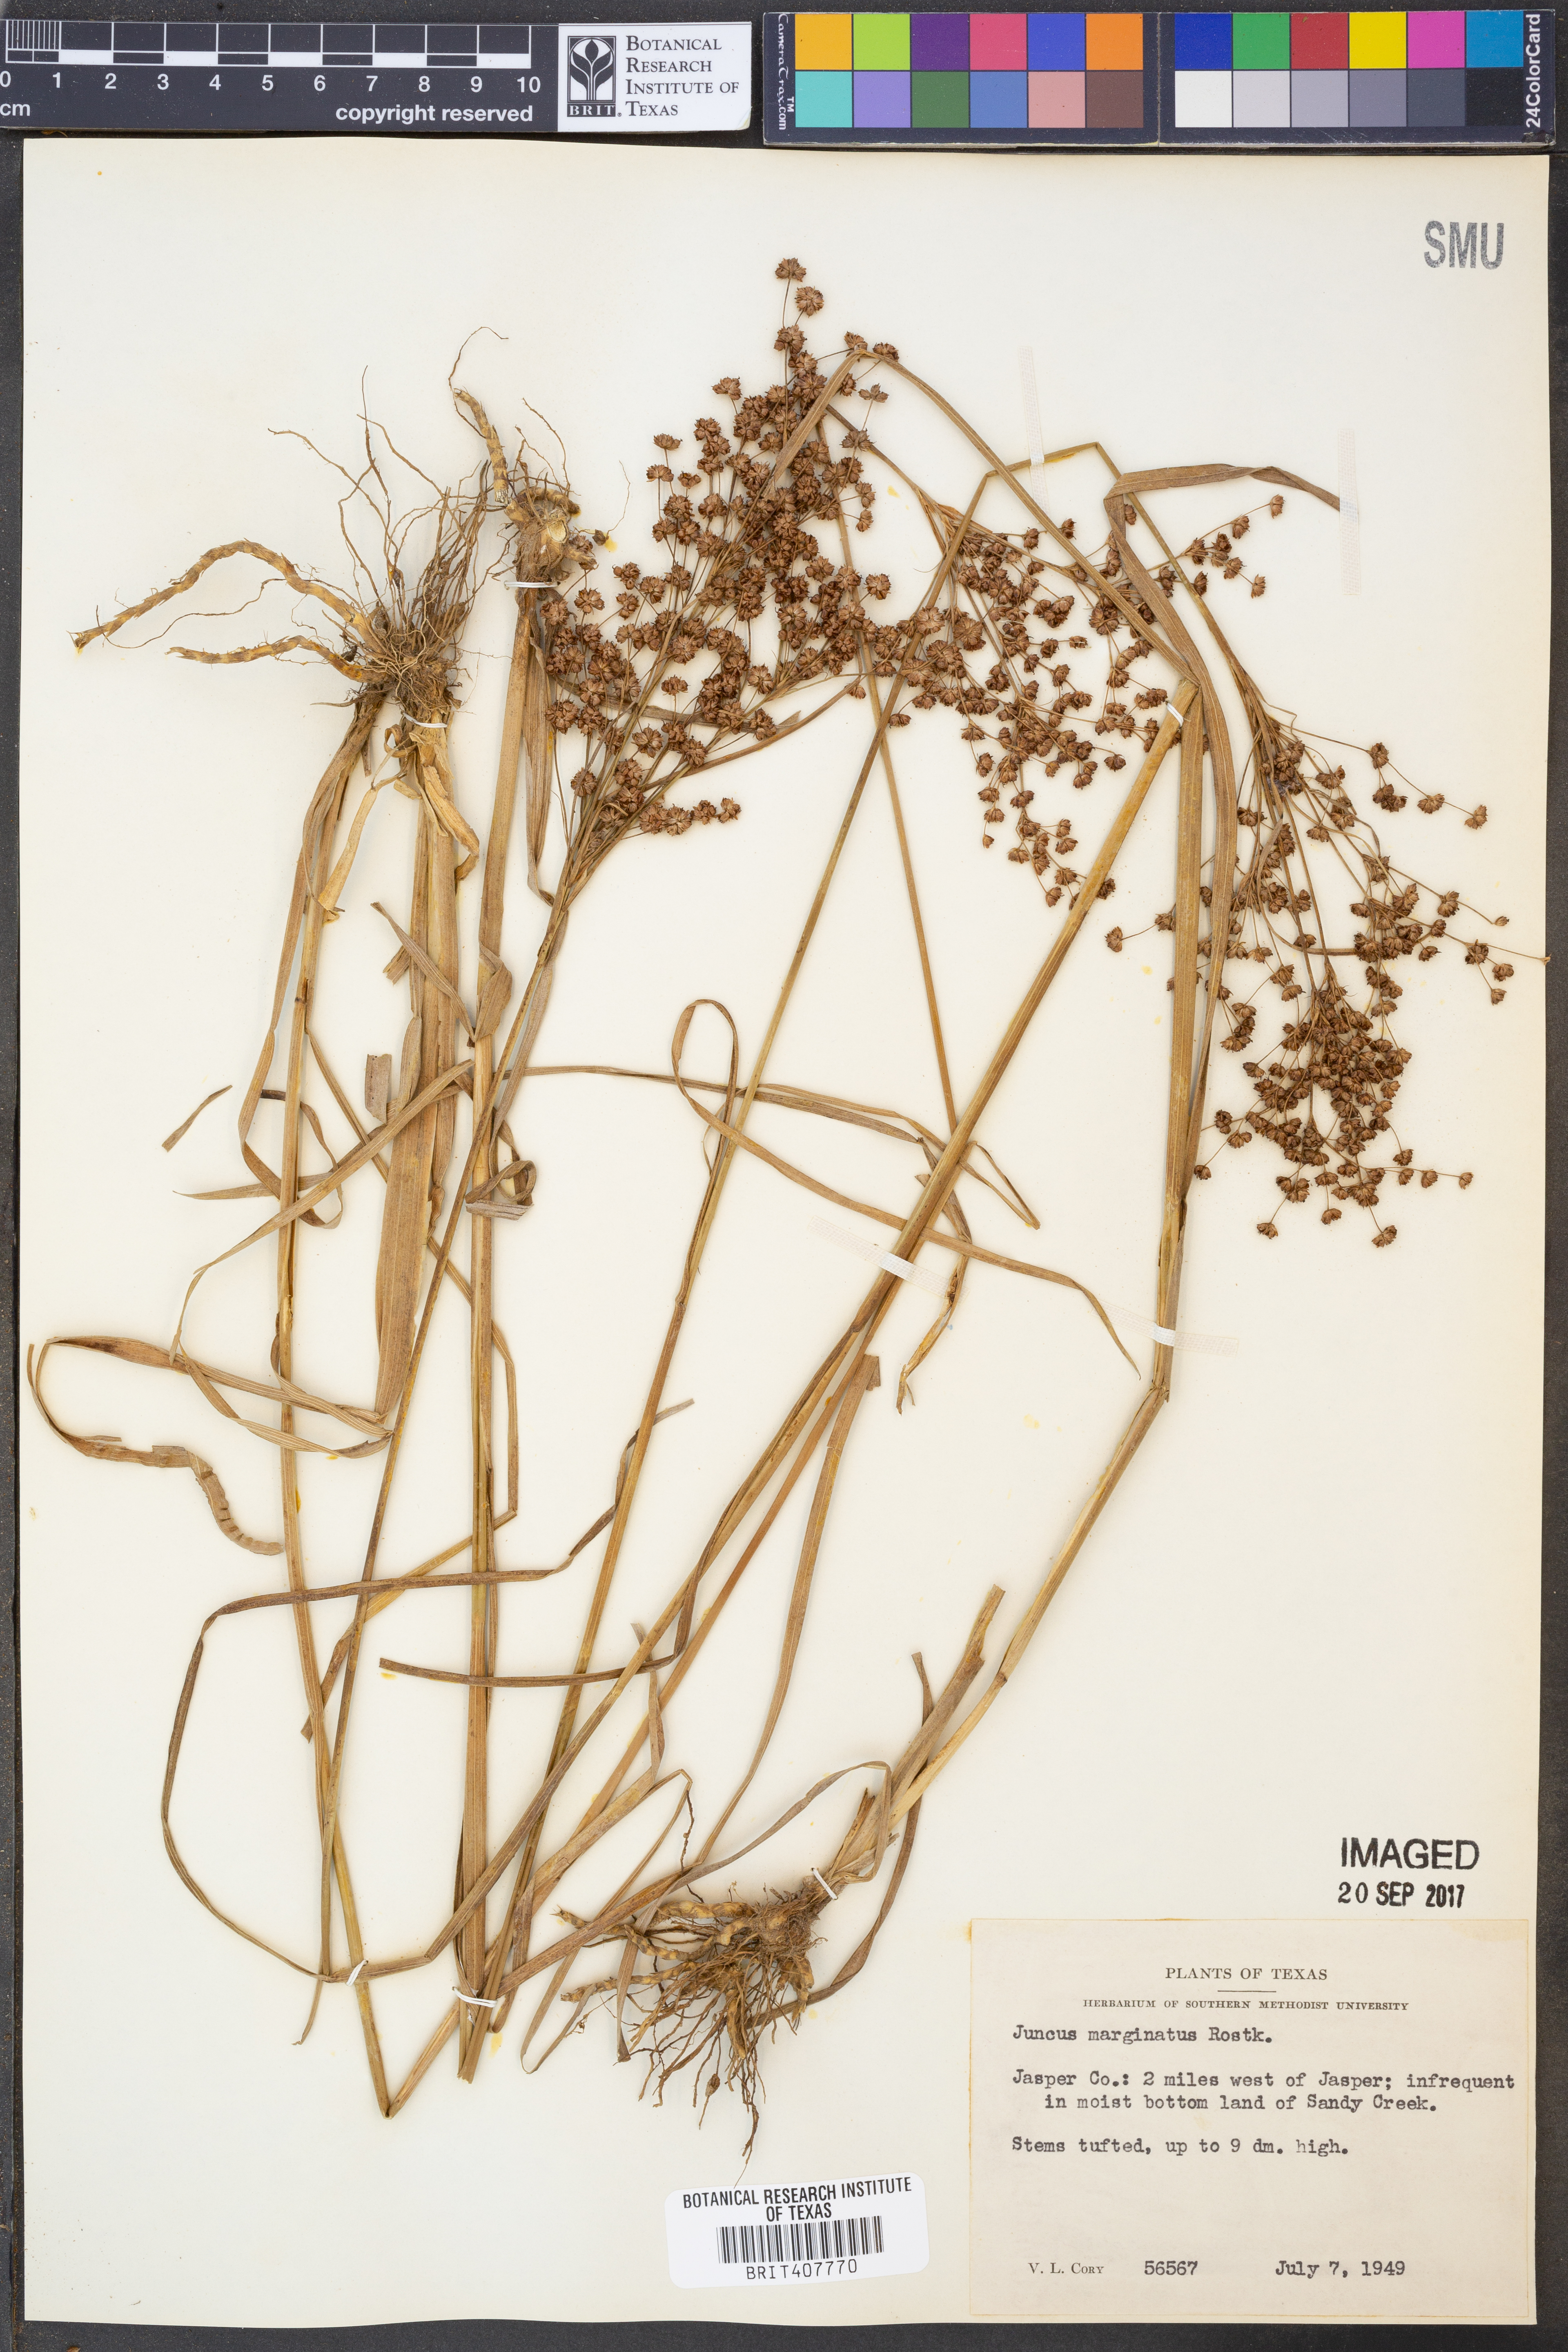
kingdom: Plantae
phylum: Tracheophyta
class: Liliopsida
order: Poales
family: Juncaceae
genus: Juncus
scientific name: Juncus marginatus
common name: Grass-leaf rush
